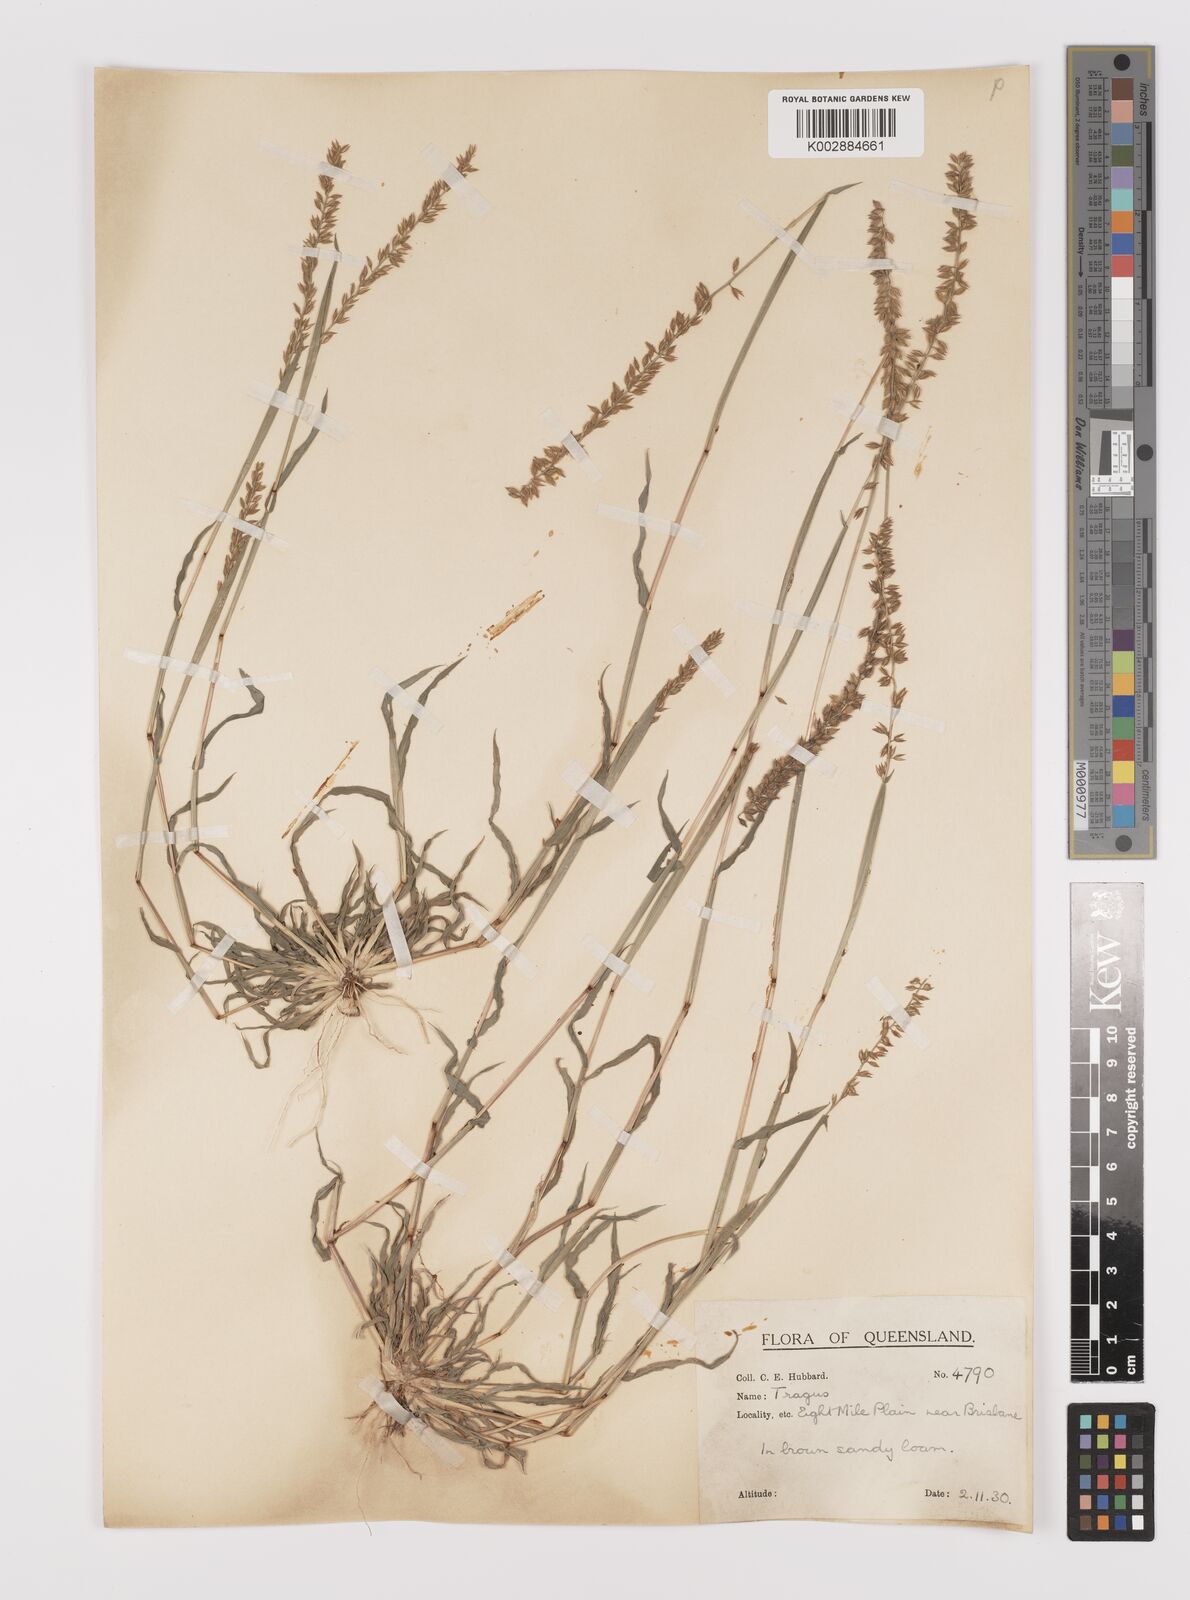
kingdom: Plantae
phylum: Tracheophyta
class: Liliopsida
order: Poales
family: Poaceae
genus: Tragus
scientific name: Tragus australianus
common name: Australian bur-grass
